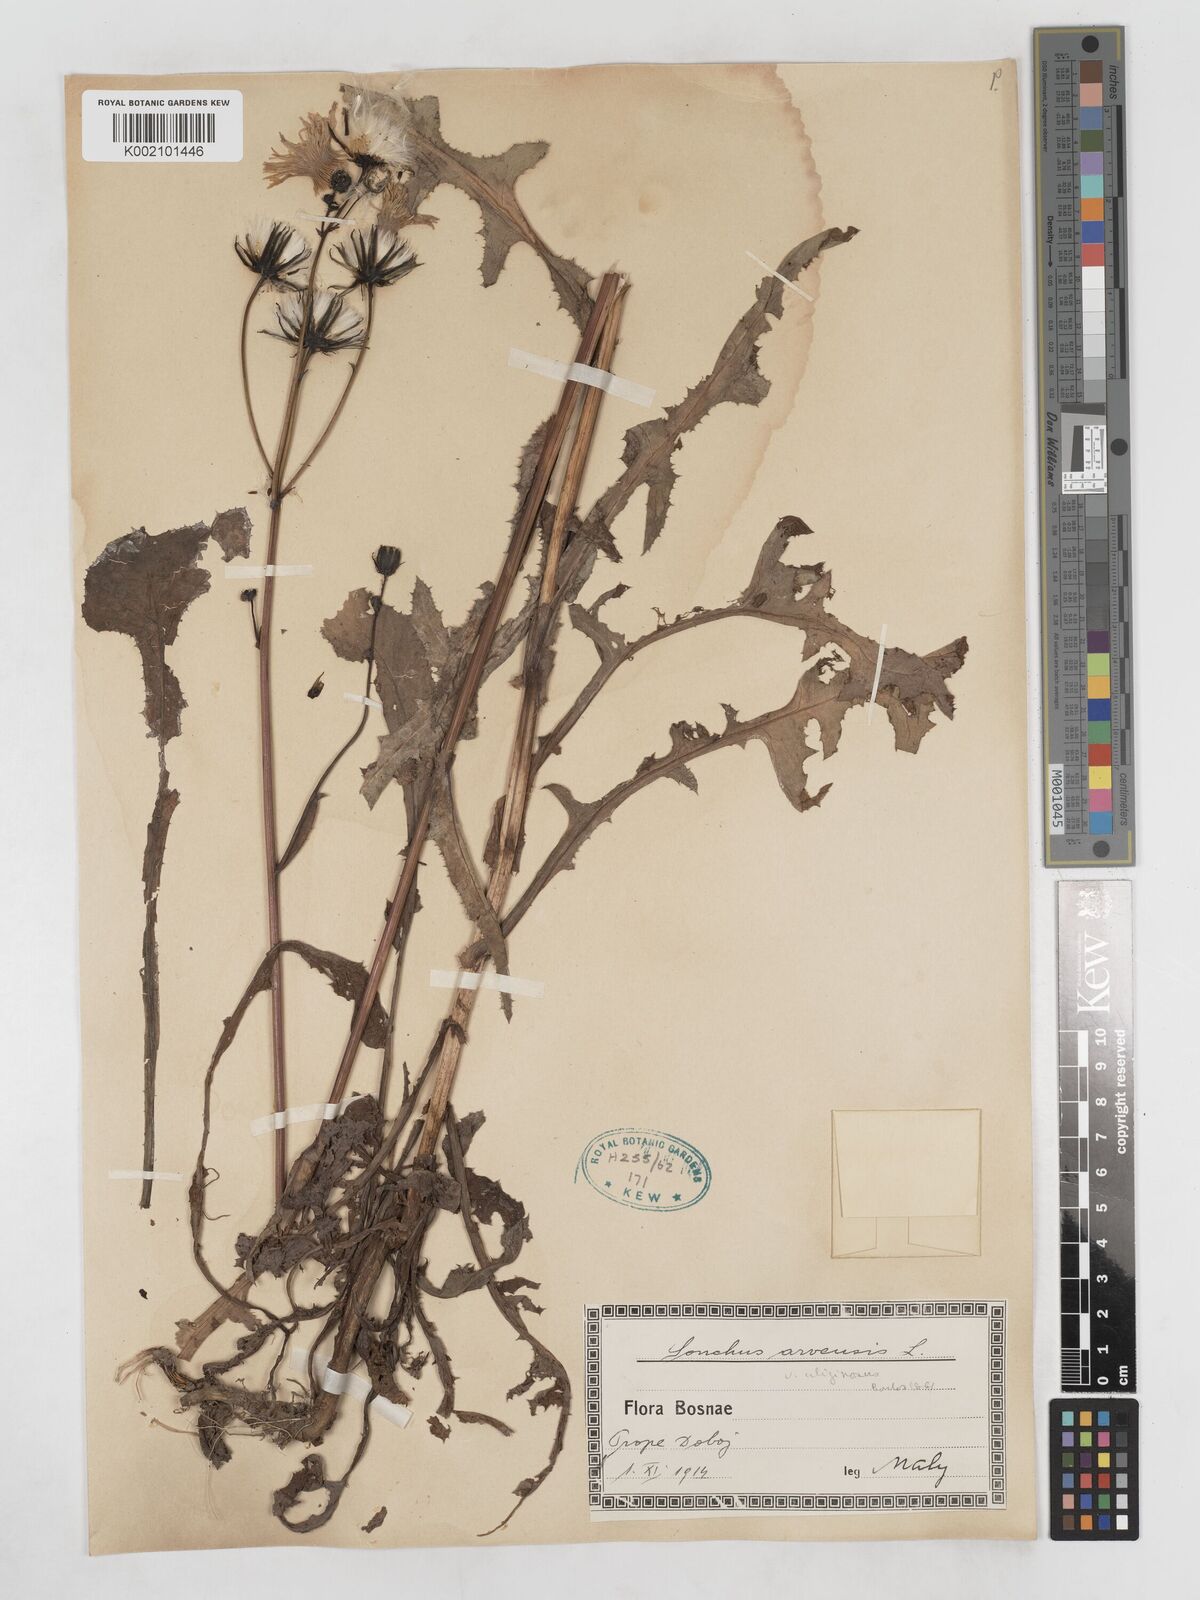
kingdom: Plantae
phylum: Tracheophyta
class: Magnoliopsida
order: Asterales
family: Asteraceae
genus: Sonchus
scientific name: Sonchus arvensis
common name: Perennial sow-thistle
